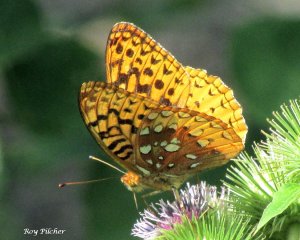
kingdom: Animalia
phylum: Arthropoda
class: Insecta
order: Lepidoptera
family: Nymphalidae
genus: Speyeria
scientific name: Speyeria cybele
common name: Great Spangled Fritillary
